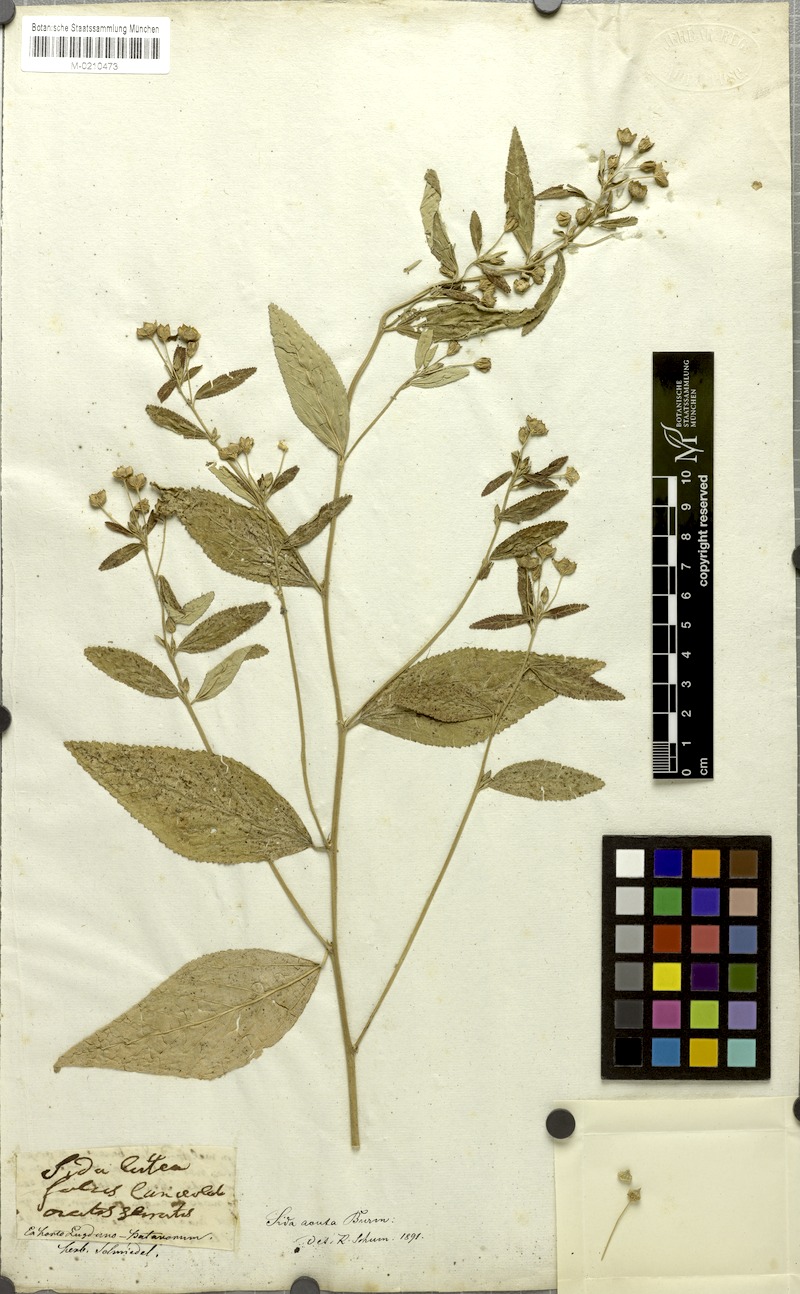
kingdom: Plantae
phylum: Tracheophyta
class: Magnoliopsida
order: Malvales
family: Malvaceae
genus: Sida
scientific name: Sida acuta
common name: Common wireweed
